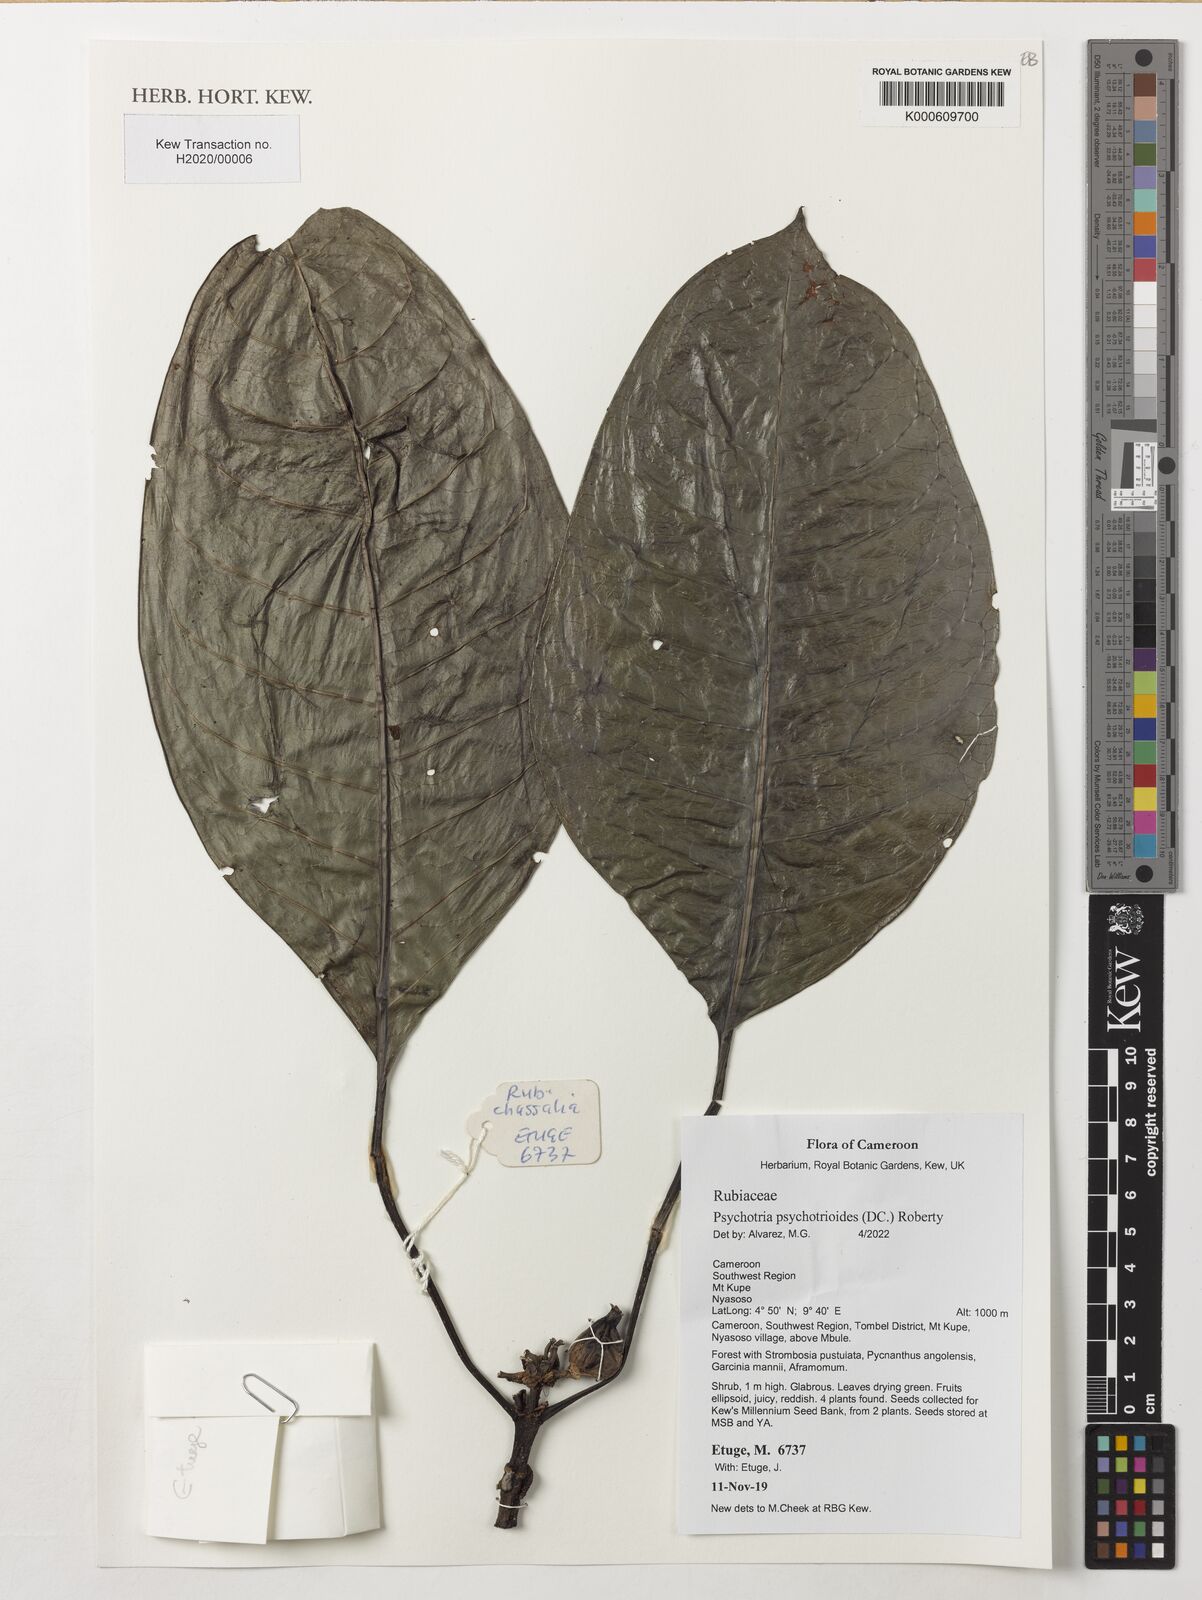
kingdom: Plantae
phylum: Tracheophyta
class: Magnoliopsida
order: Gentianales
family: Rubiaceae
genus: Psychotria
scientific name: Psychotria psychotrioides
